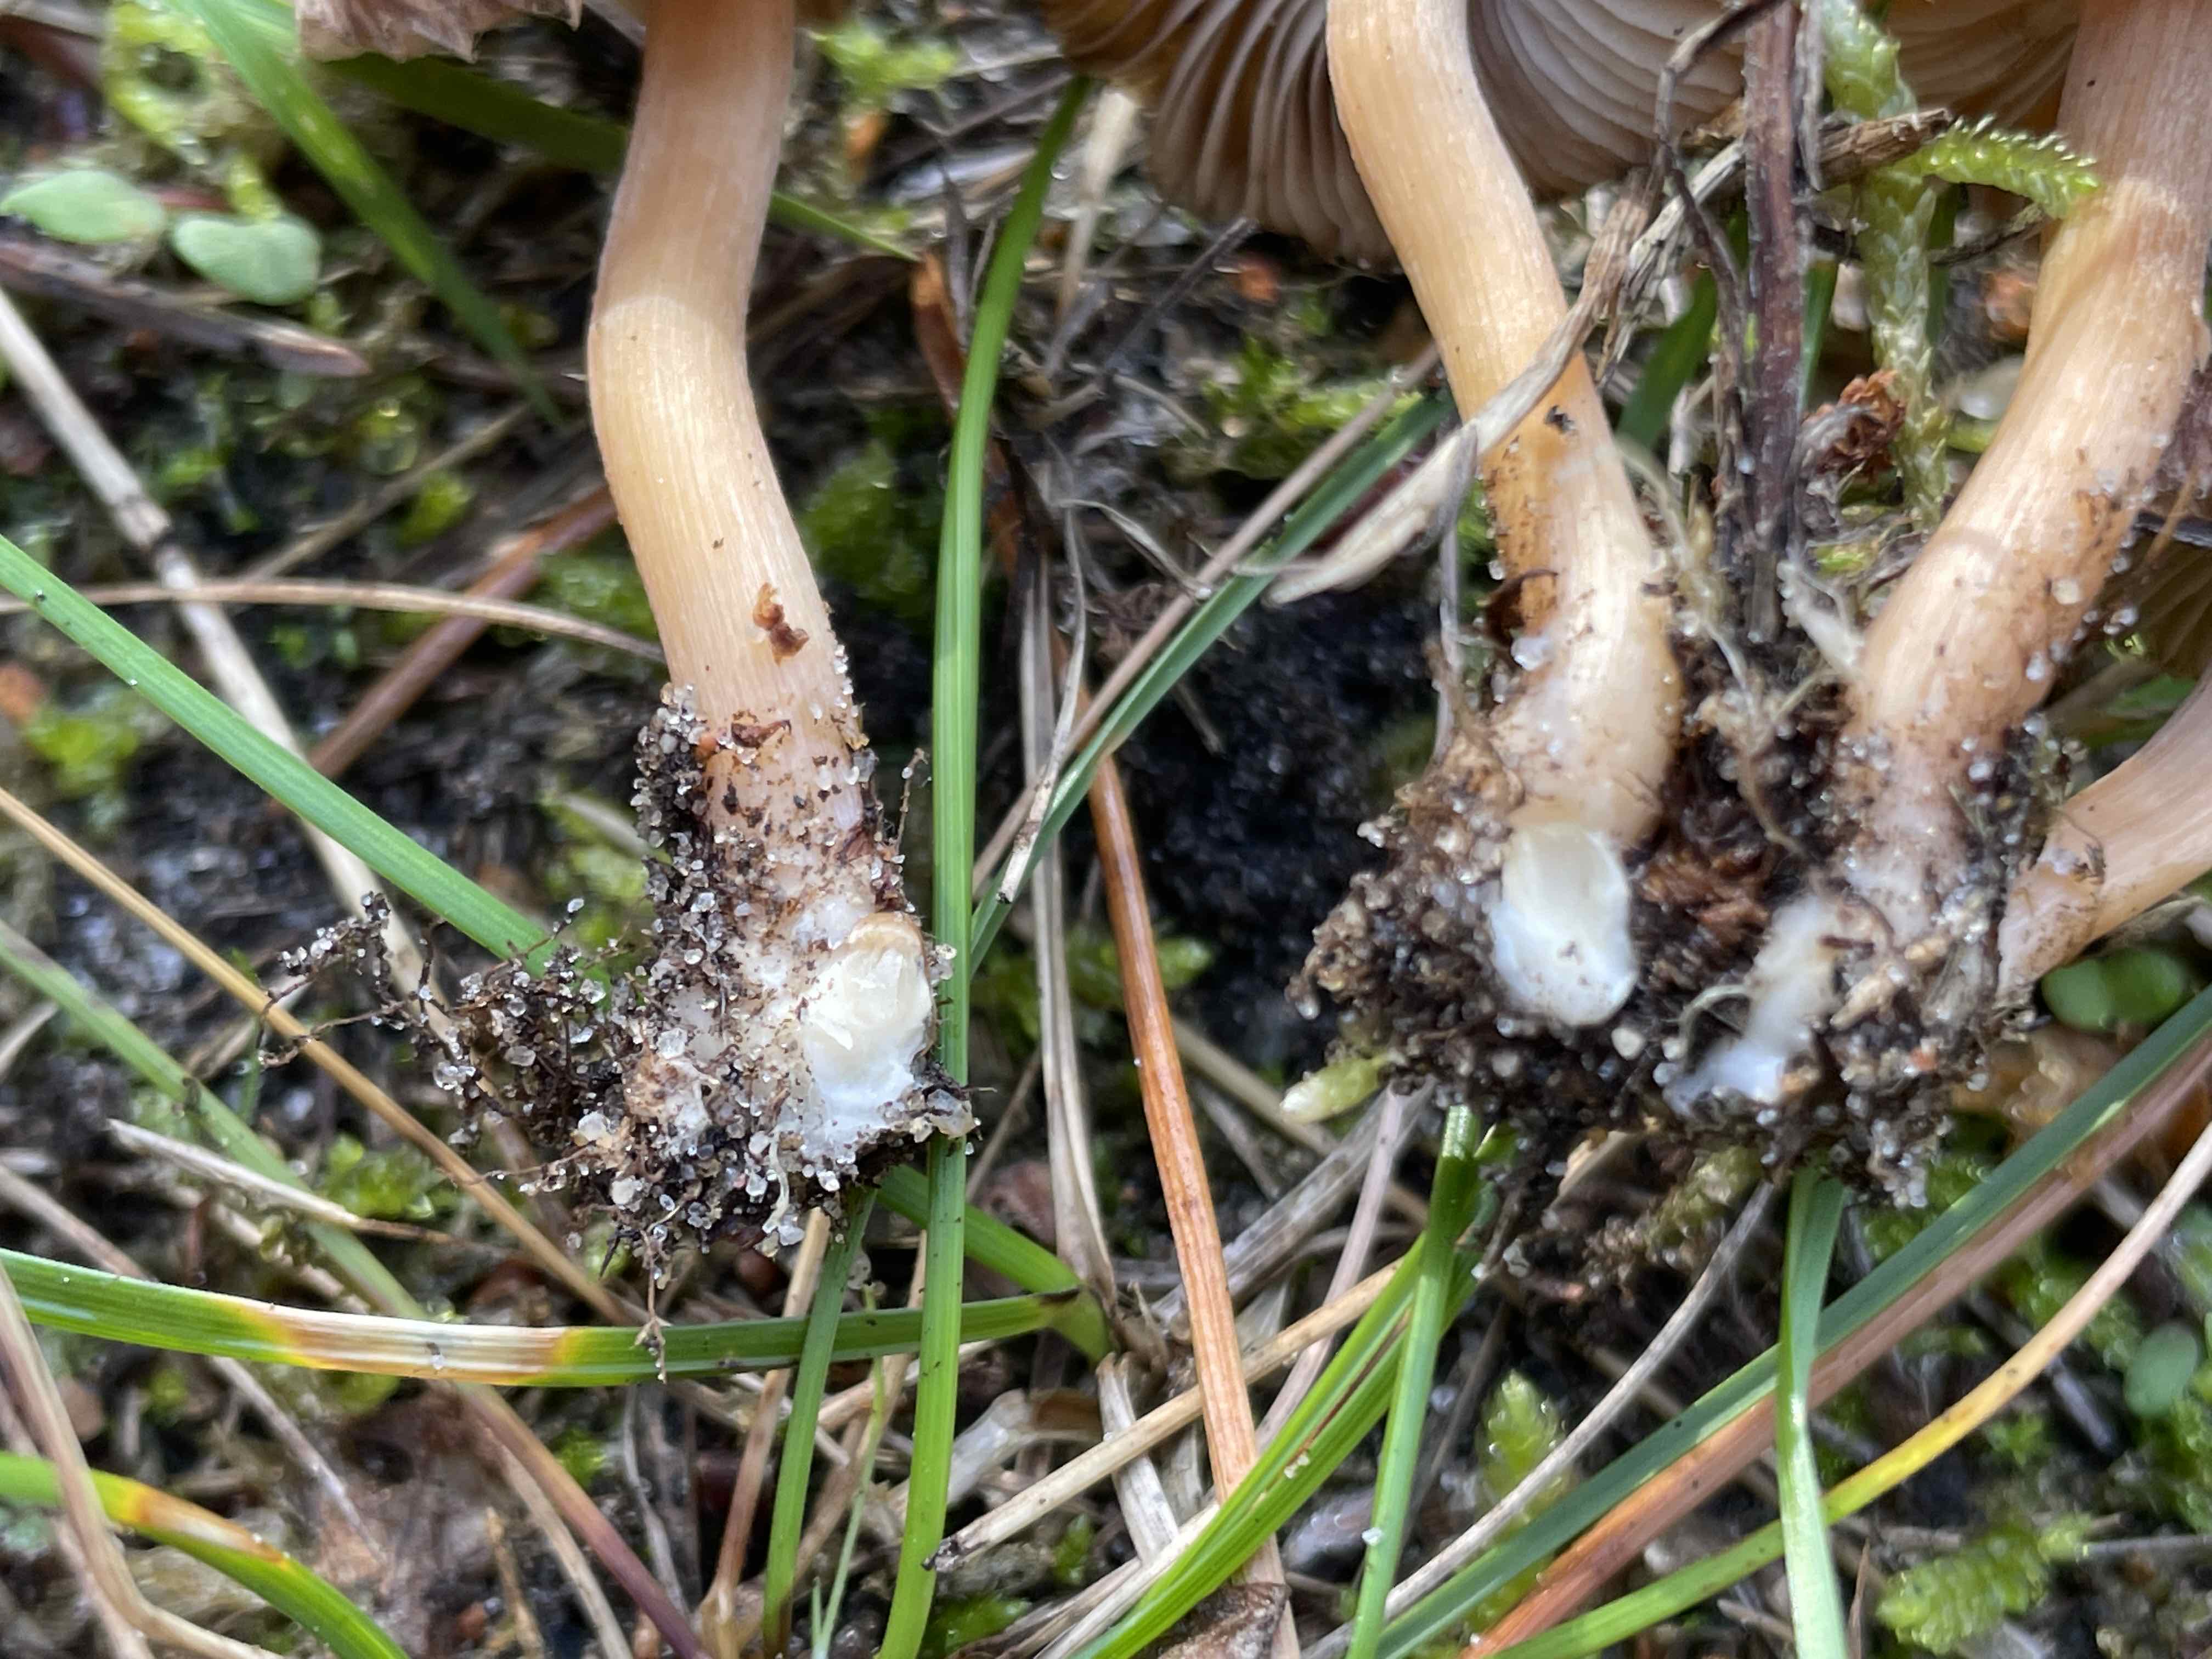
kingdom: Fungi
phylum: Basidiomycota
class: Agaricomycetes
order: Agaricales
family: Inocybaceae
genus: Inocybe
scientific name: Inocybe
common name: trævlhat
